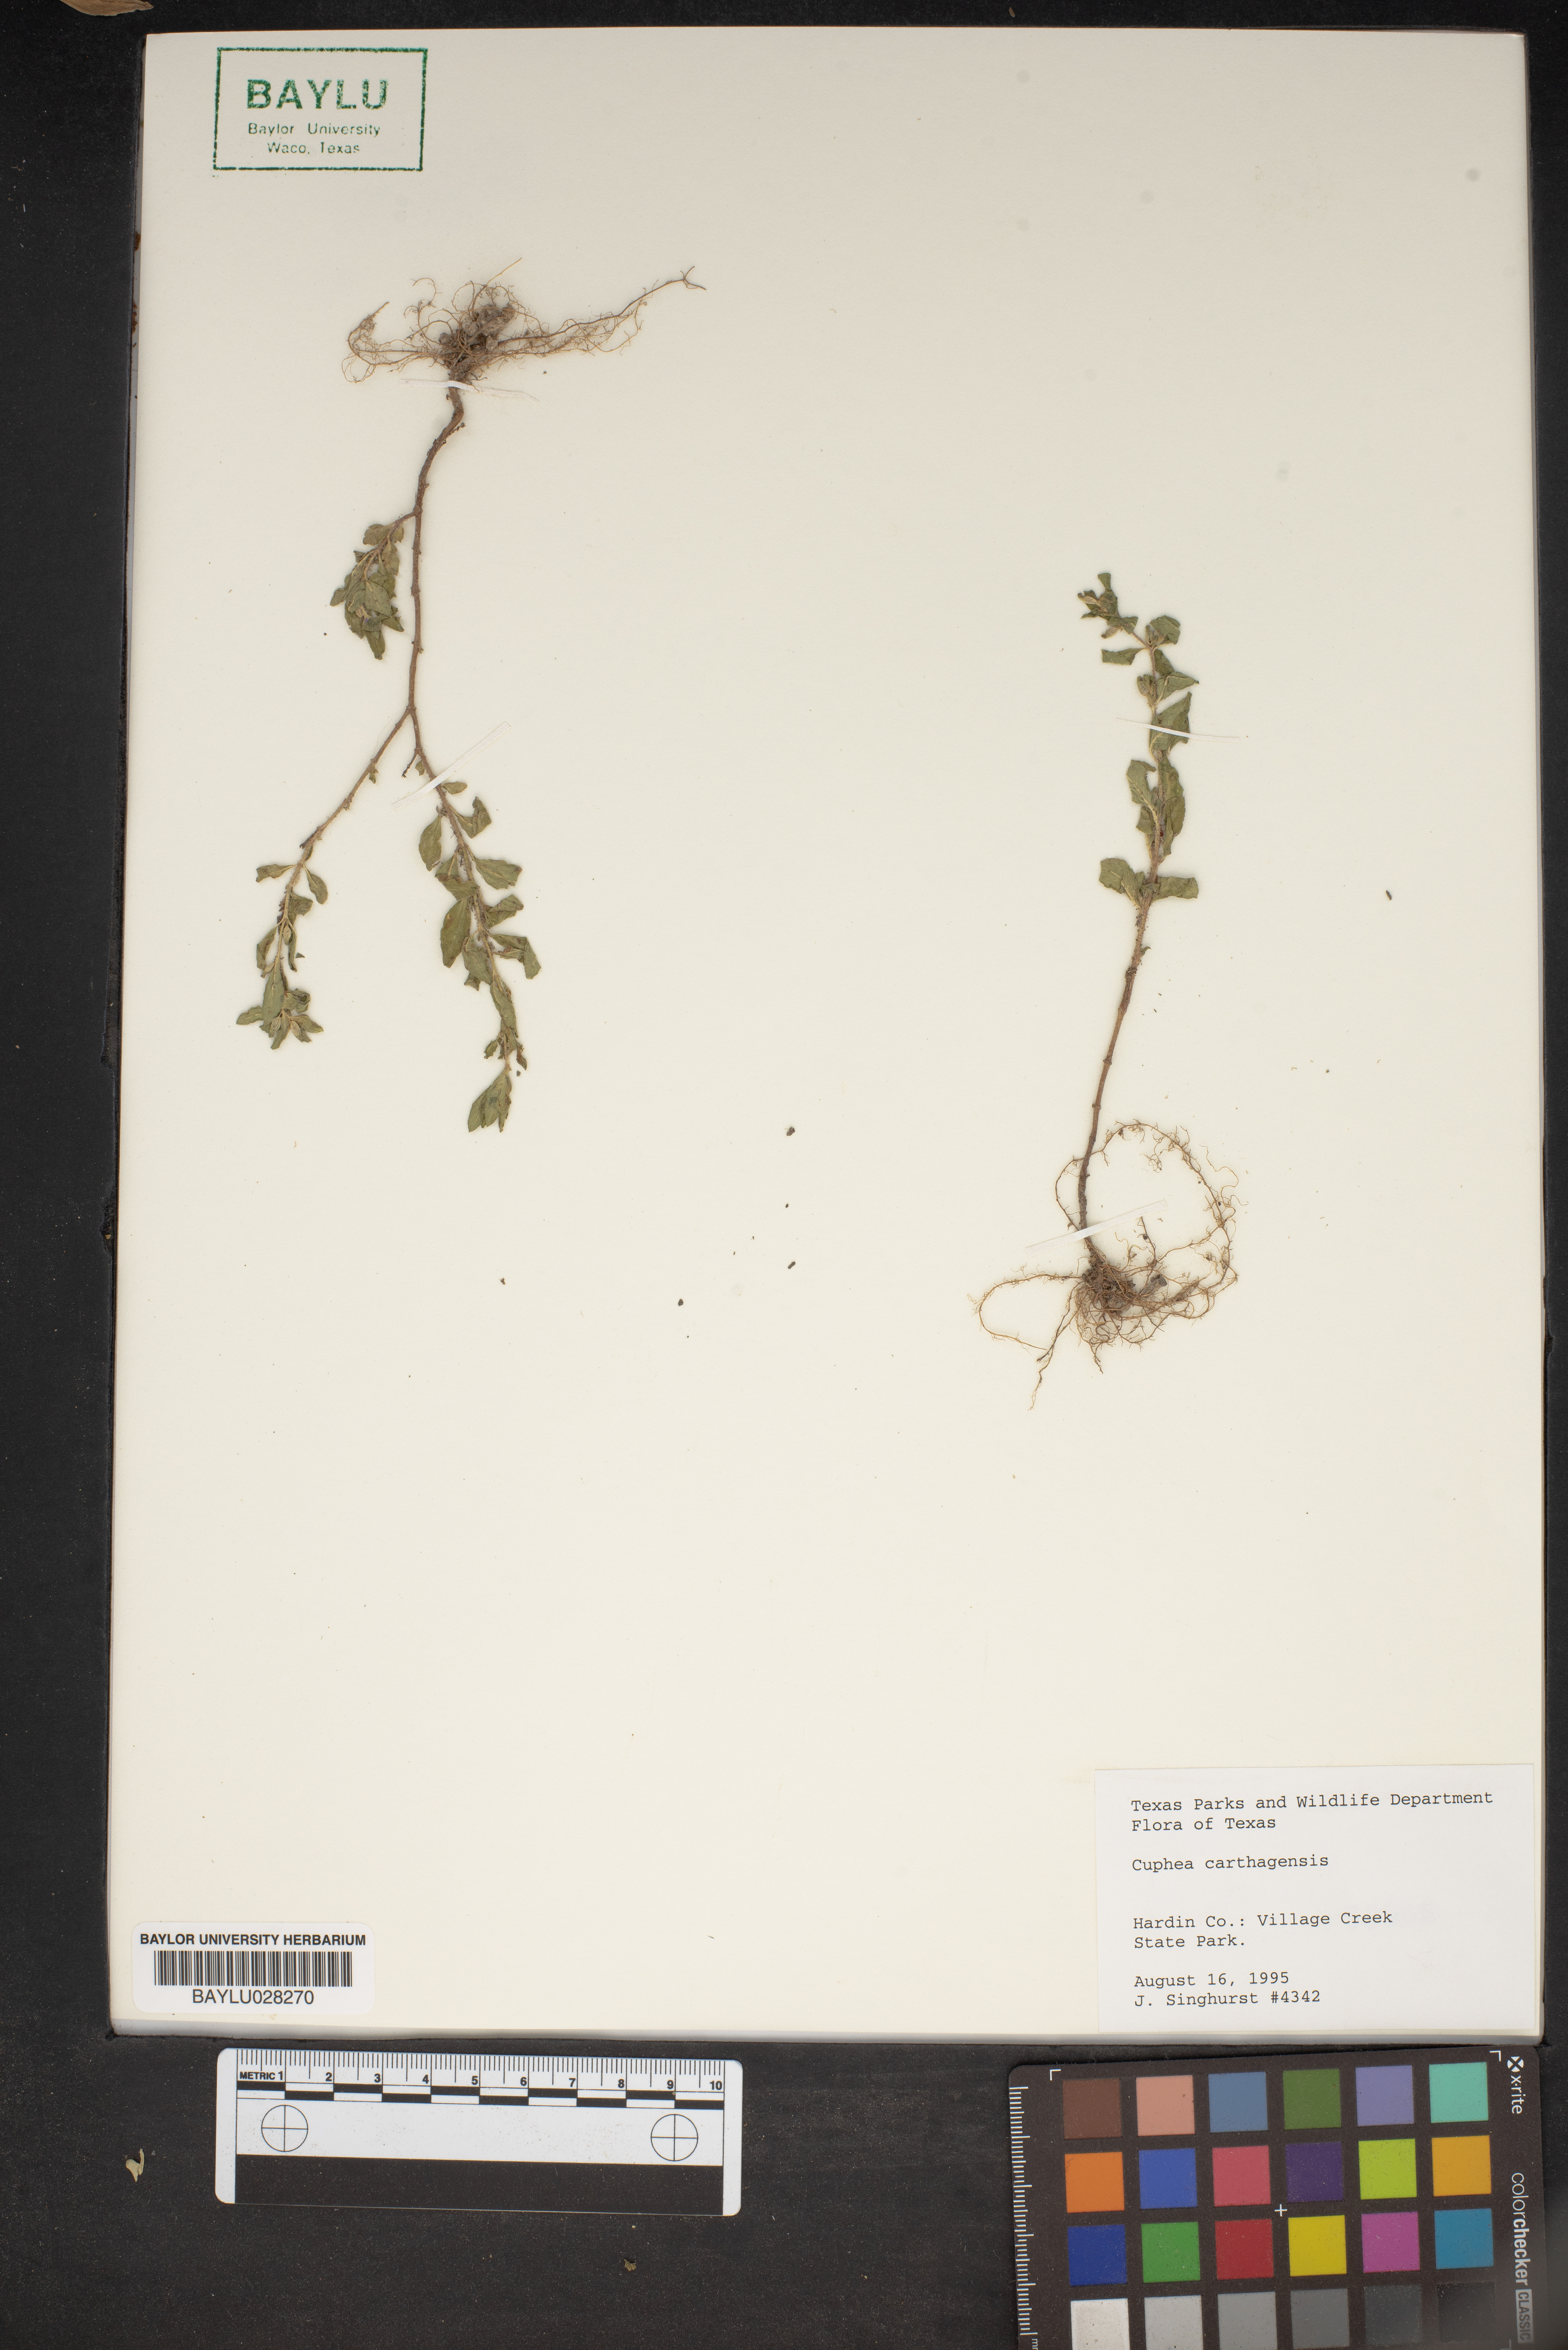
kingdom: Plantae
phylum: Tracheophyta
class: Magnoliopsida
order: Myrtales
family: Lythraceae
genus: Cuphea
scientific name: Cuphea carthagenensis
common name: Colombian waxweed
